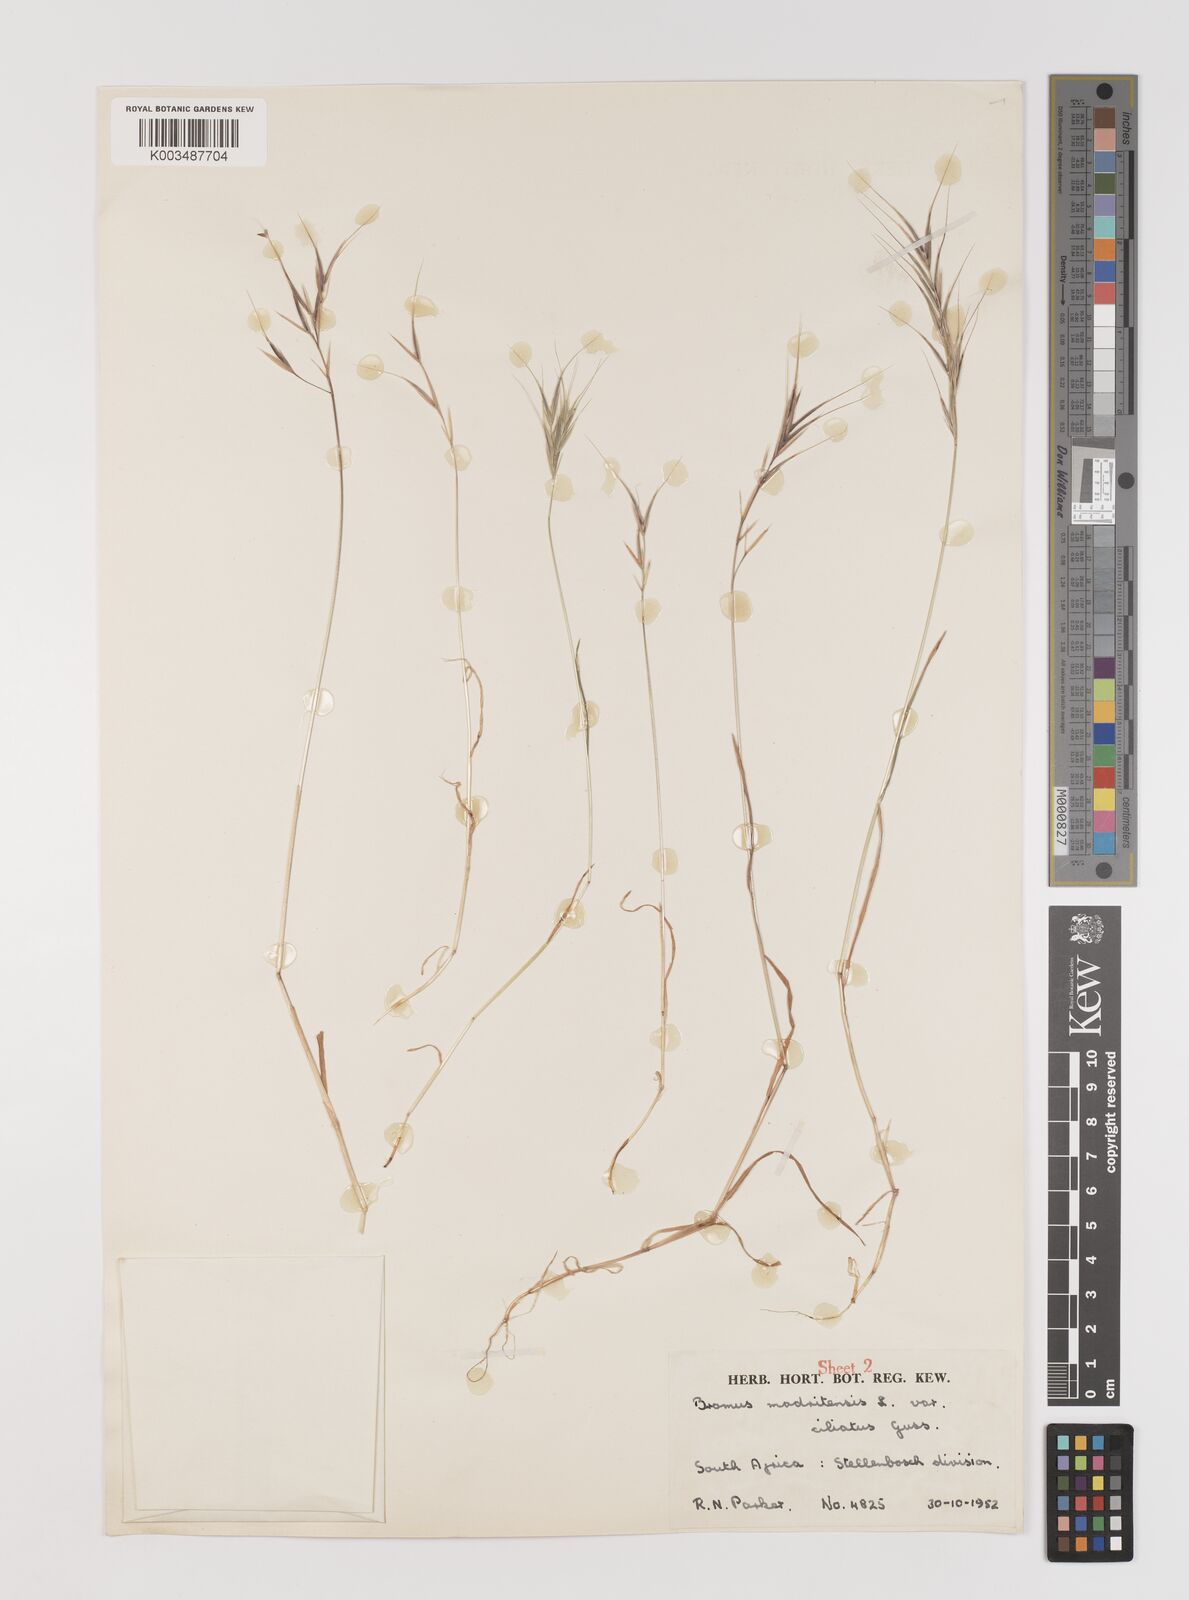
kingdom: Plantae
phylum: Tracheophyta
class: Liliopsida
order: Poales
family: Poaceae
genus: Bromus
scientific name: Bromus madritensis
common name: Compact brome
